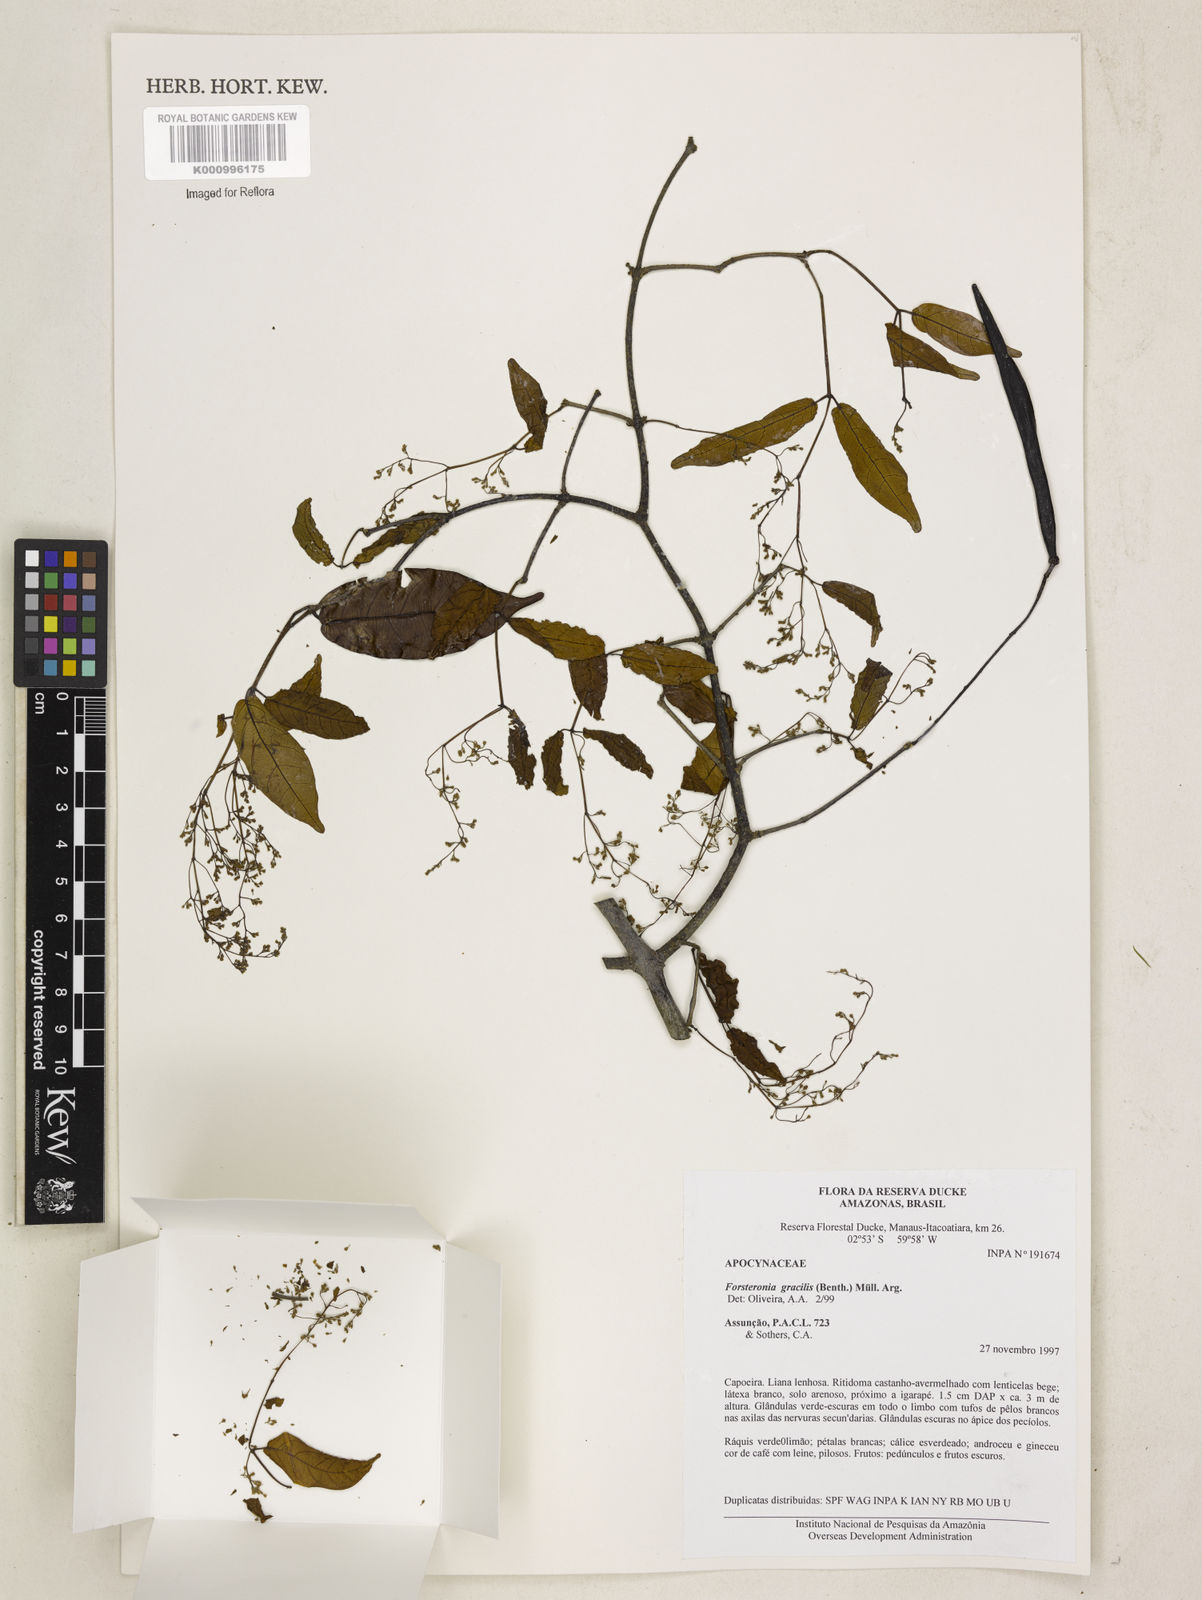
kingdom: Plantae
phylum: Tracheophyta
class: Magnoliopsida
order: Gentianales
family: Apocynaceae
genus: Forsteronia
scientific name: Forsteronia
